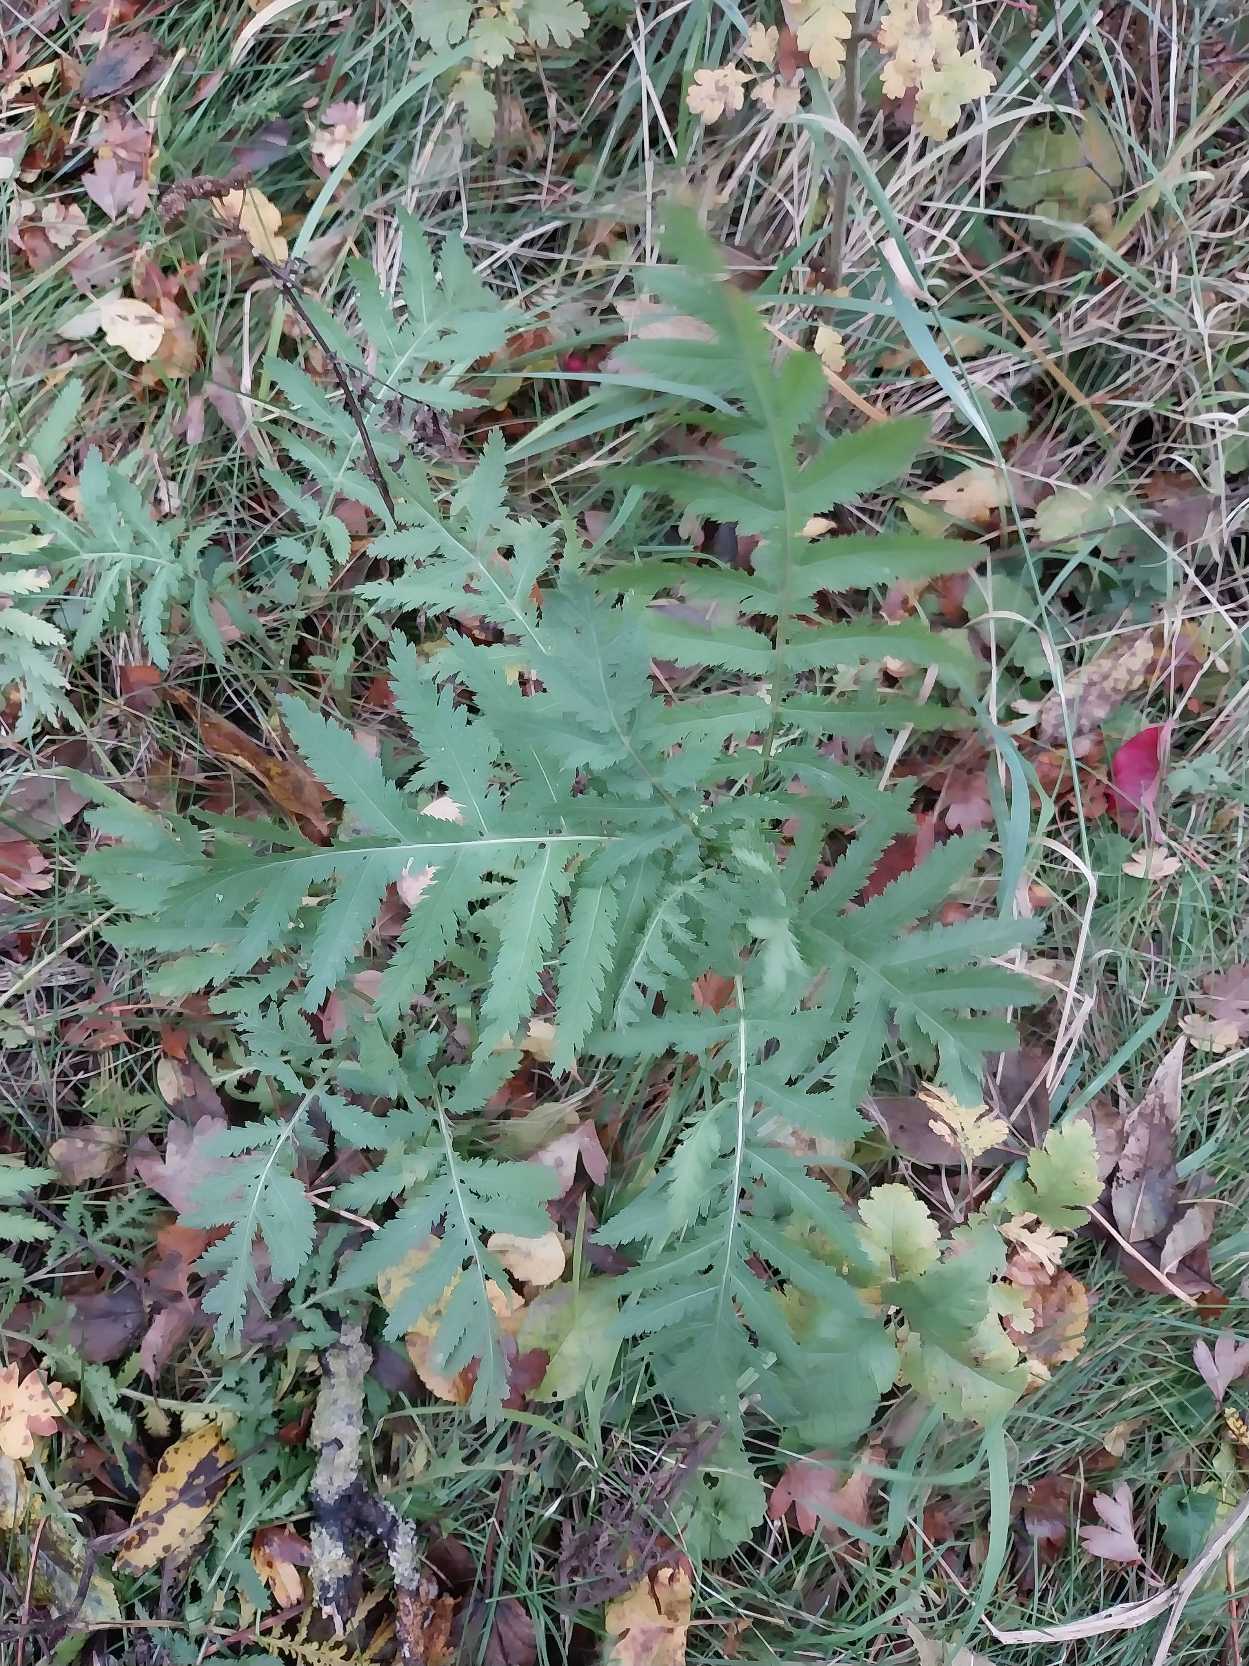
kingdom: Plantae
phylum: Tracheophyta
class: Magnoliopsida
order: Asterales
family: Asteraceae
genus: Tanacetum
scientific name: Tanacetum vulgare
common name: Rejnfan
